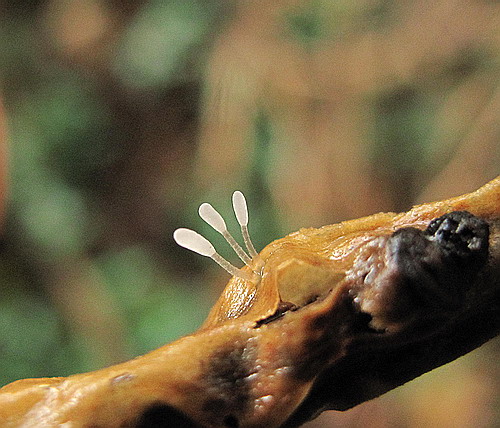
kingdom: Fungi
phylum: Basidiomycota
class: Agaricomycetes
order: Agaricales
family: Typhulaceae
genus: Typhula
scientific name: Typhula spathulata
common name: aske-trådkølle
